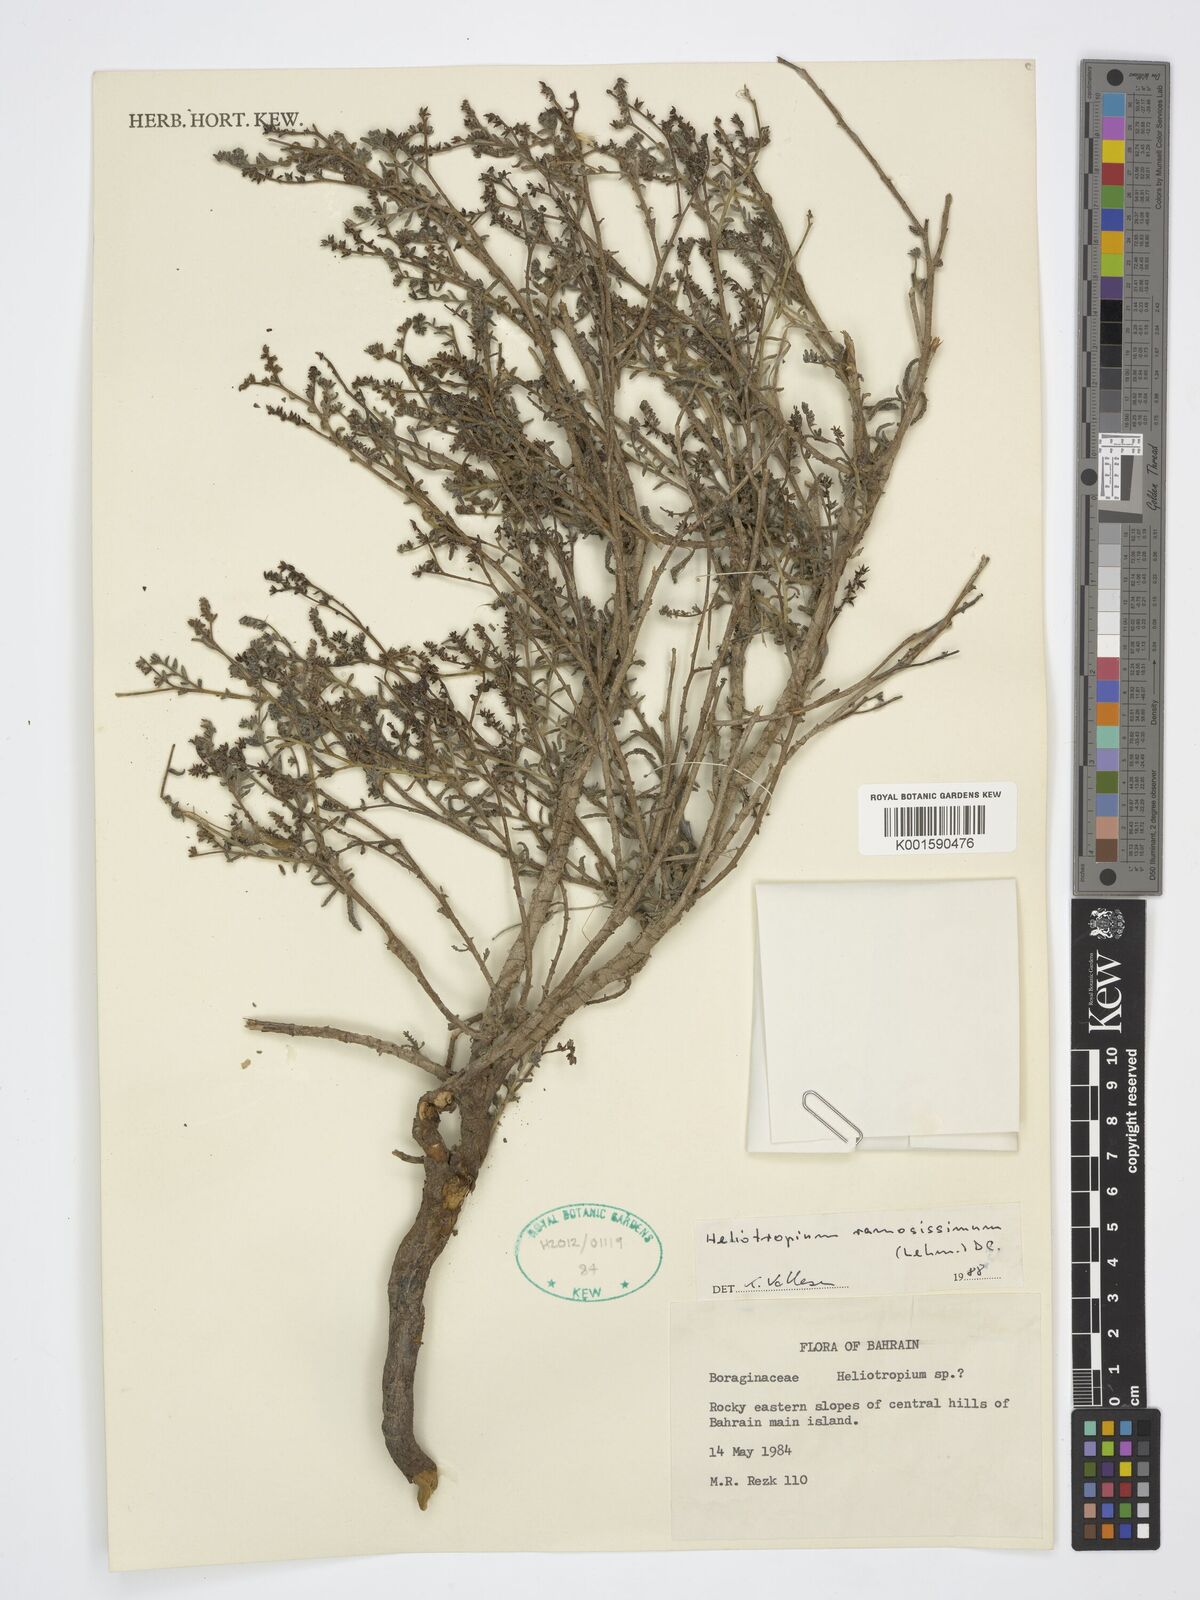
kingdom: Plantae
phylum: Tracheophyta
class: Magnoliopsida
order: Boraginales
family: Heliotropiaceae
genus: Heliotropium
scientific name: Heliotropium ramosissimum
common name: Wavy heliotrope
